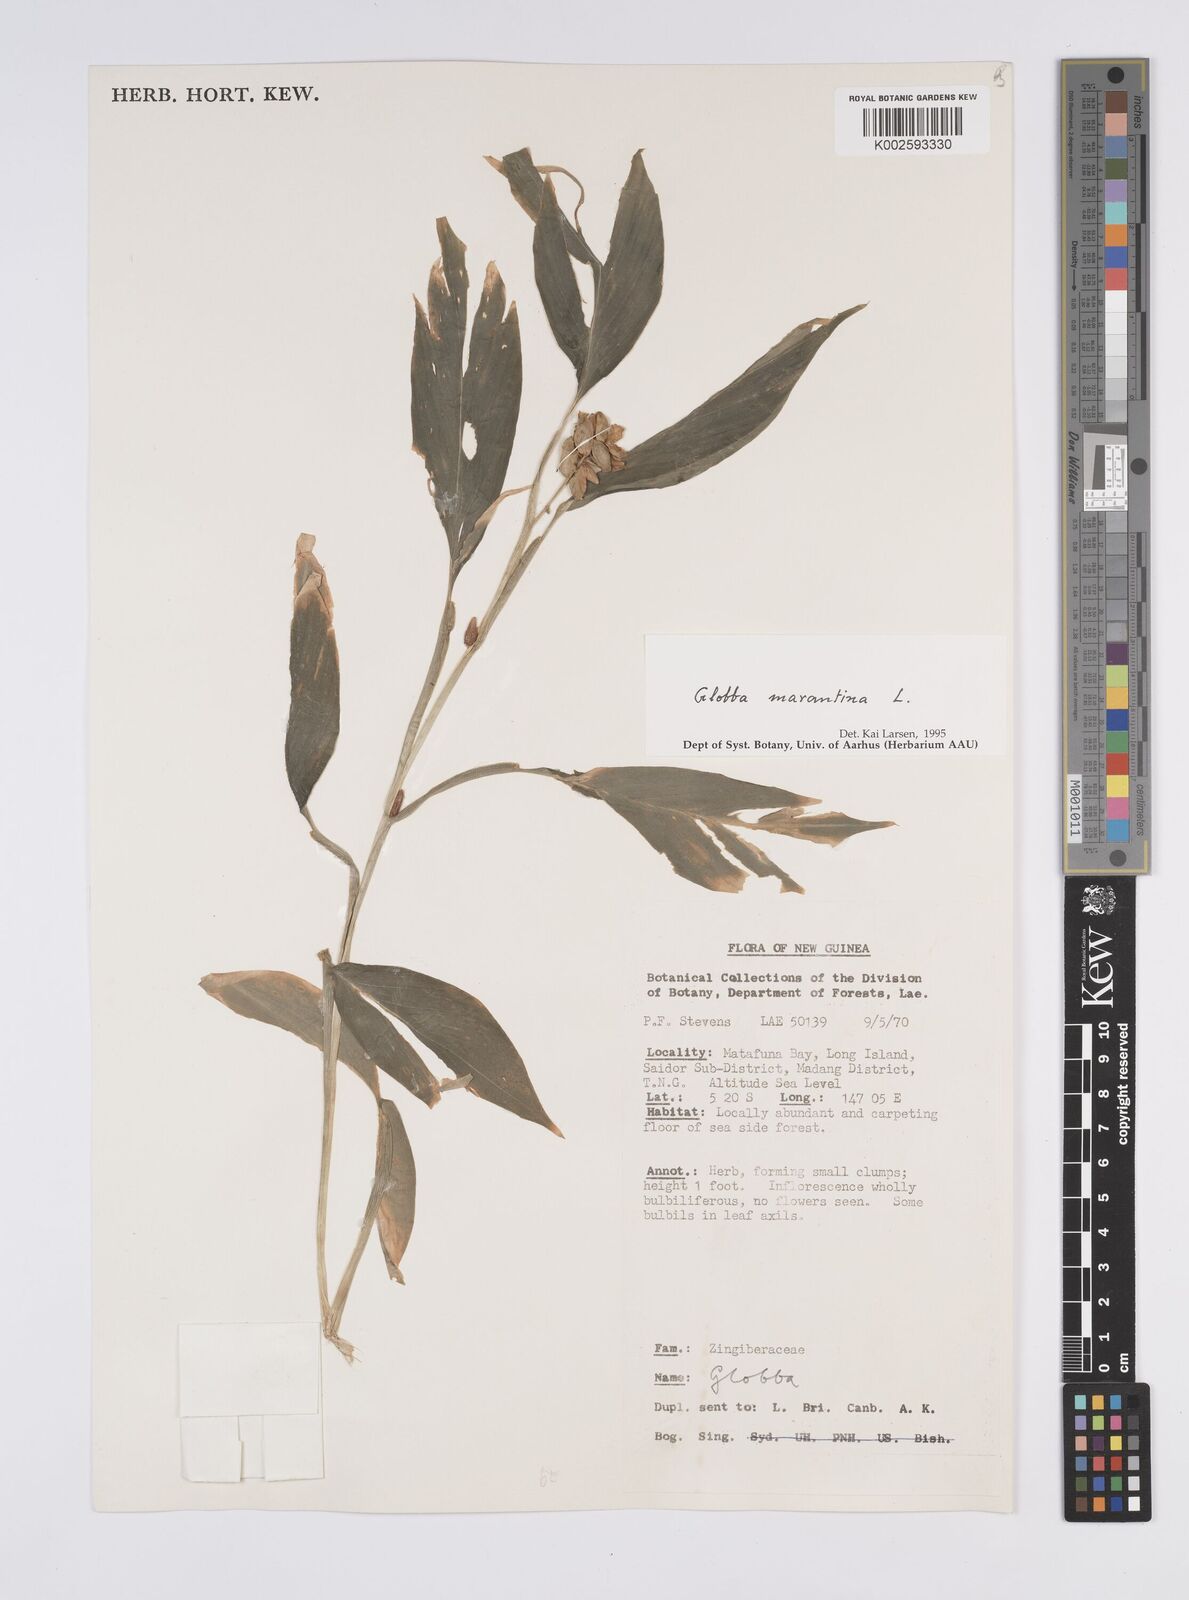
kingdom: Plantae
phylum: Tracheophyta
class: Liliopsida
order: Zingiberales
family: Zingiberaceae
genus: Globba
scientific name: Globba marantina
